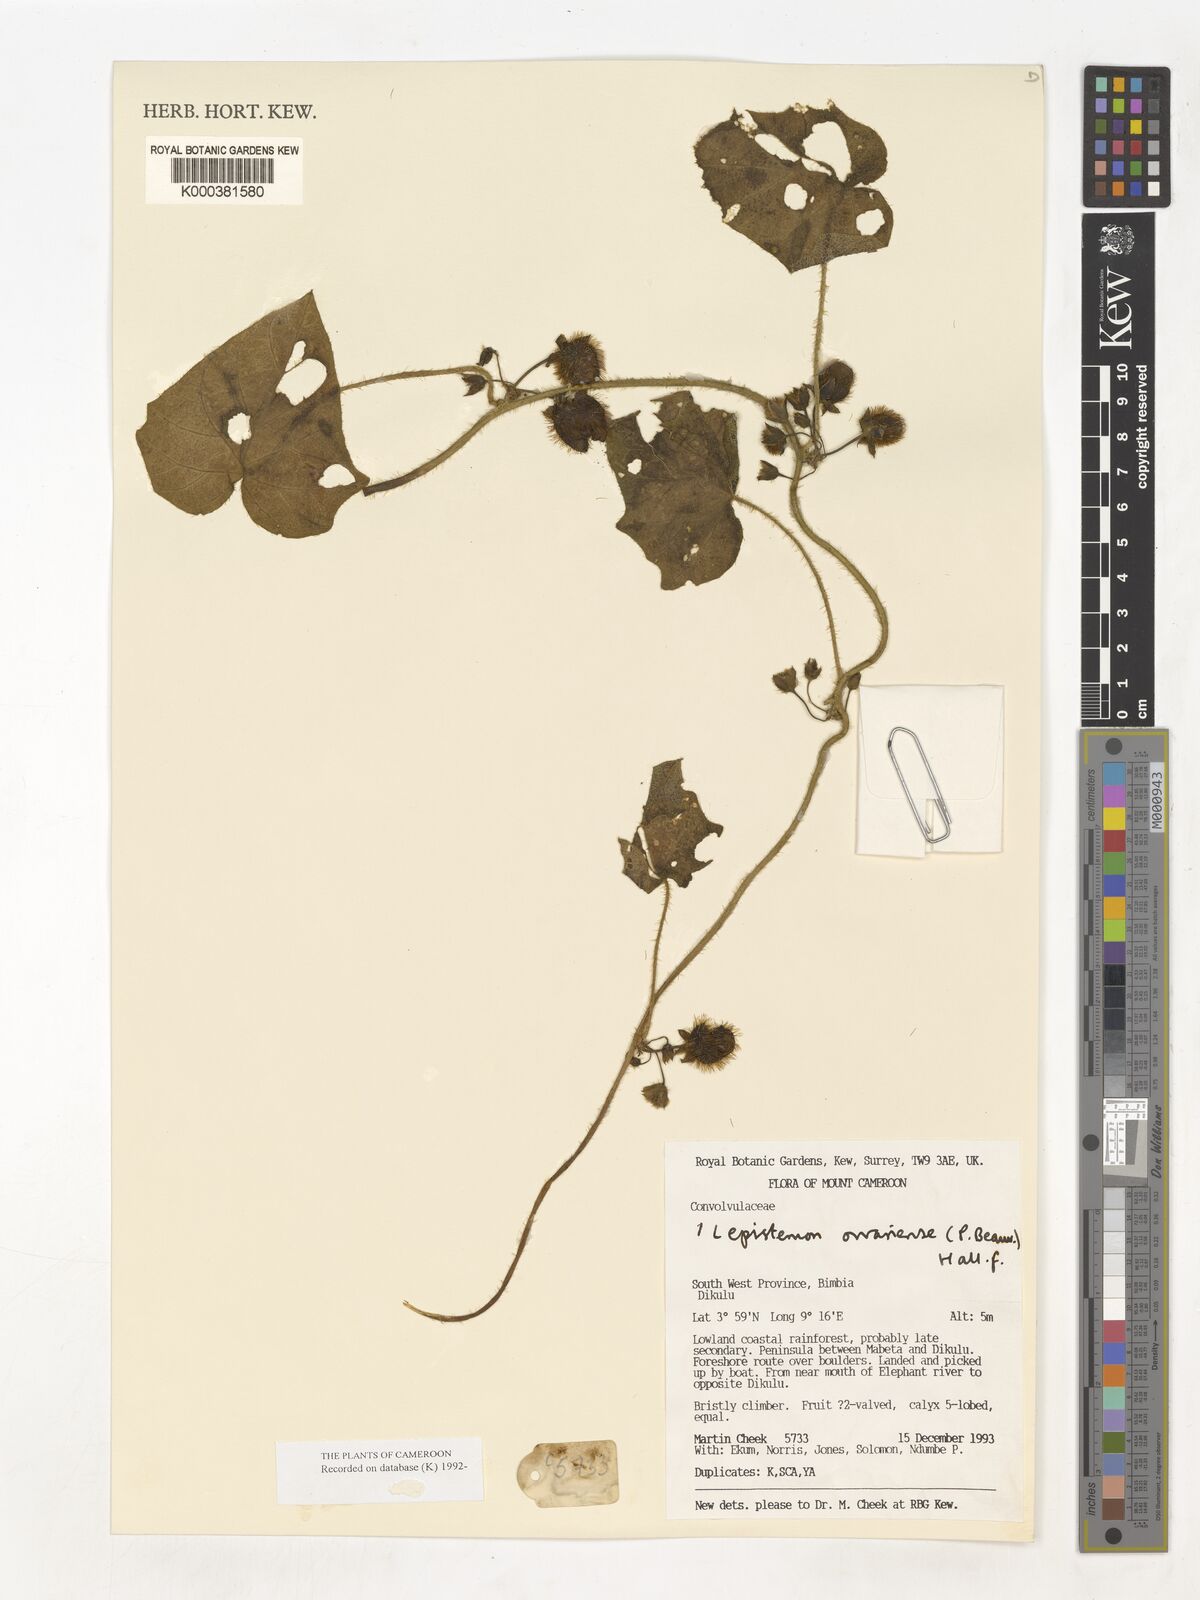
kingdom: Plantae
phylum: Tracheophyta
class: Magnoliopsida
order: Solanales
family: Convolvulaceae
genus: Lepistemon
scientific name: Lepistemon
